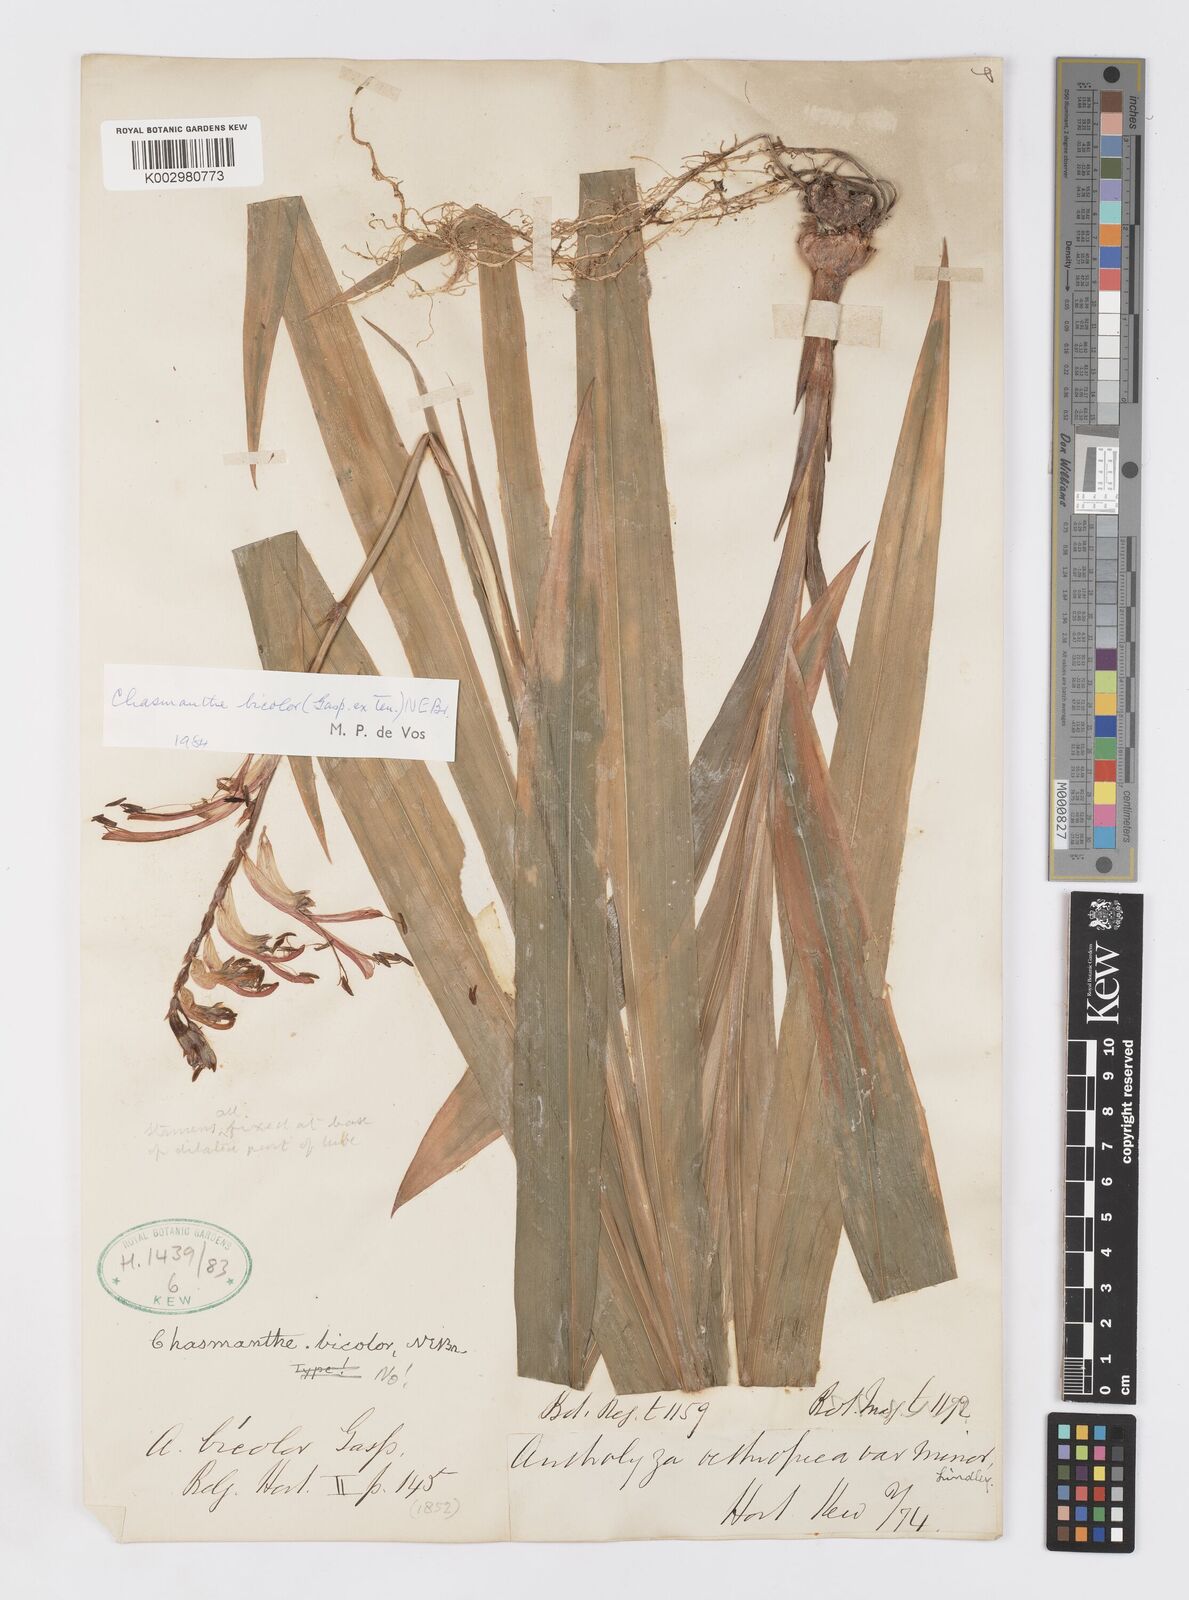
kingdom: Plantae
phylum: Tracheophyta
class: Liliopsida
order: Asparagales
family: Iridaceae
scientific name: Iridaceae
